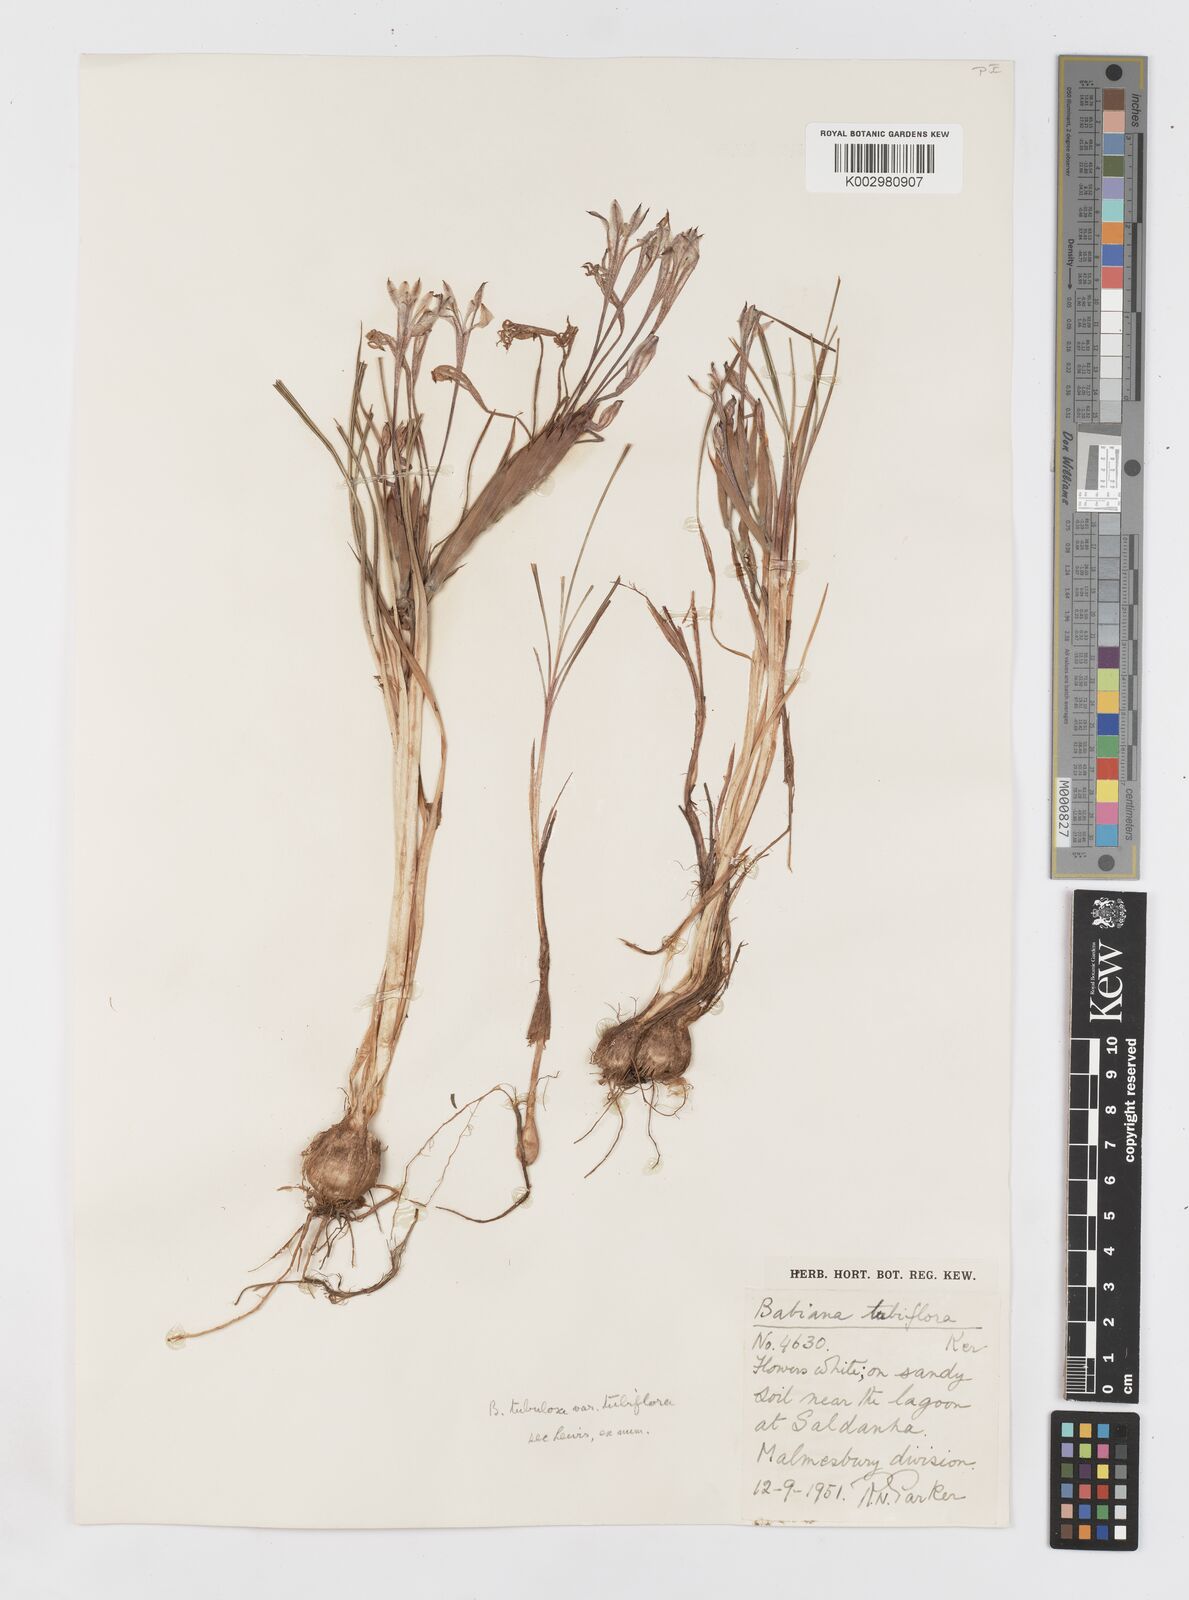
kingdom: Plantae
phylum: Tracheophyta
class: Liliopsida
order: Asparagales
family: Iridaceae
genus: Babiana
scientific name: Babiana tubiflora
